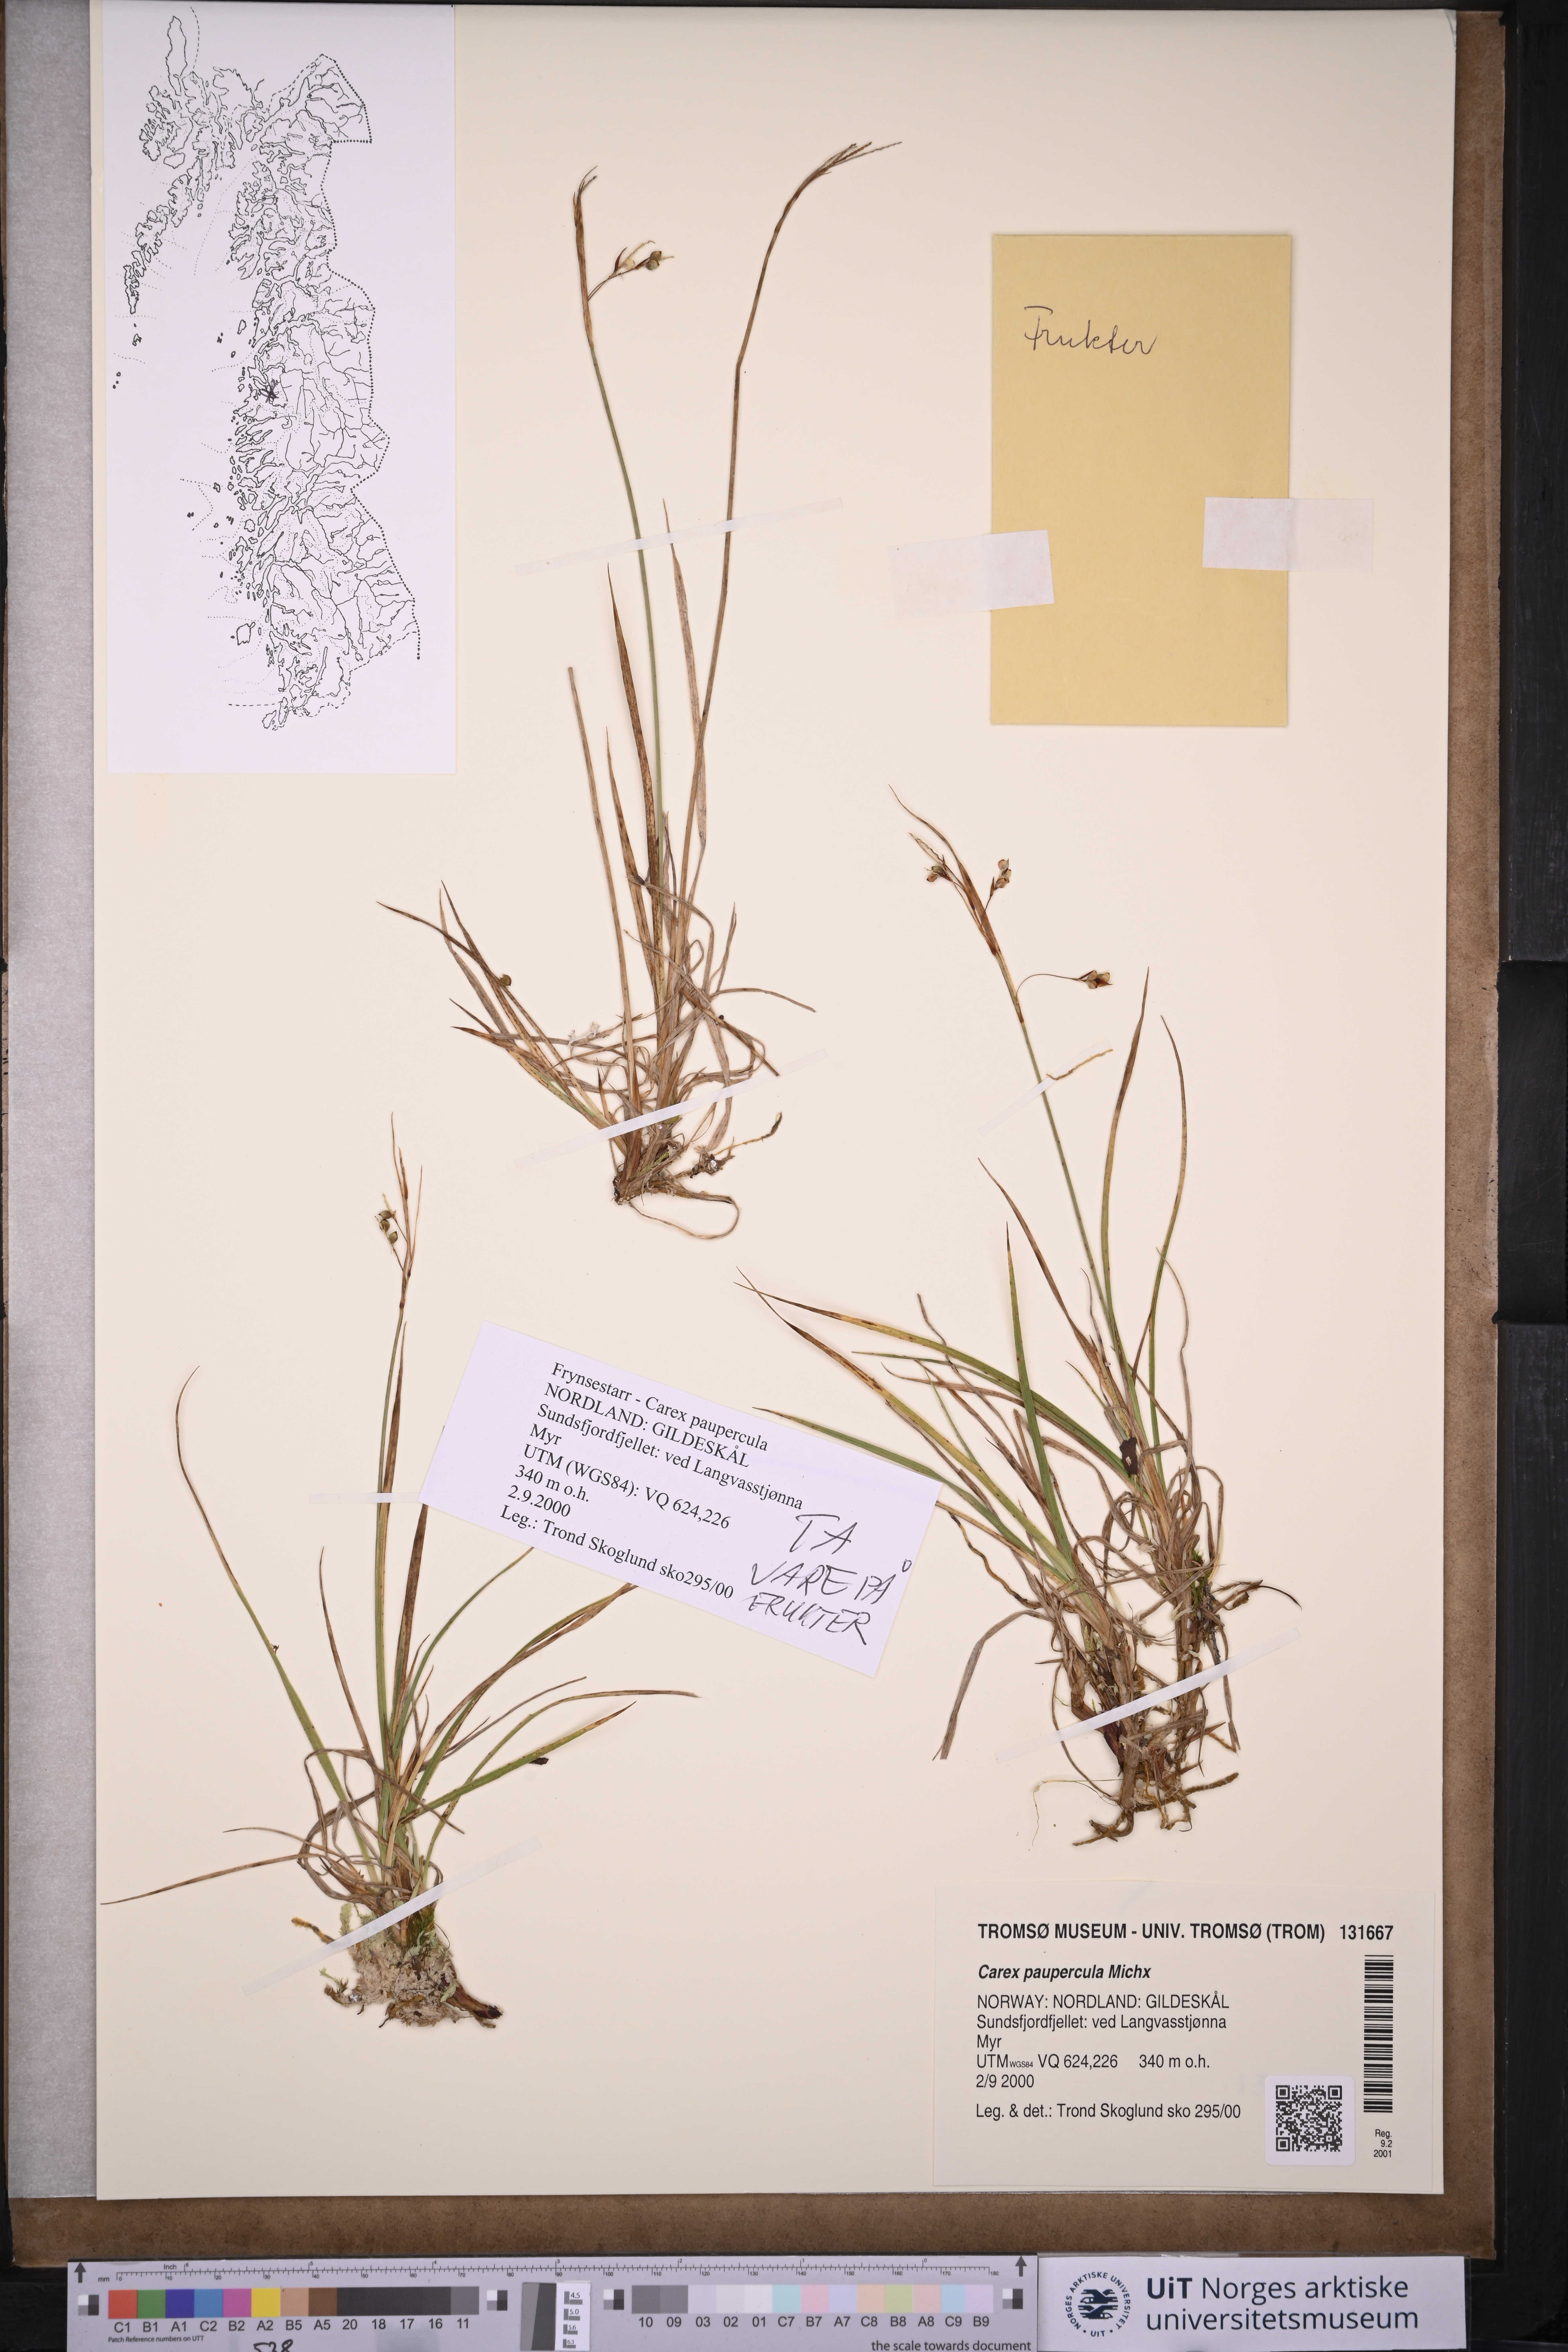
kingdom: Plantae
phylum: Tracheophyta
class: Liliopsida
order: Poales
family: Cyperaceae
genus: Carex
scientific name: Carex magellanica
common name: Bog sedge
